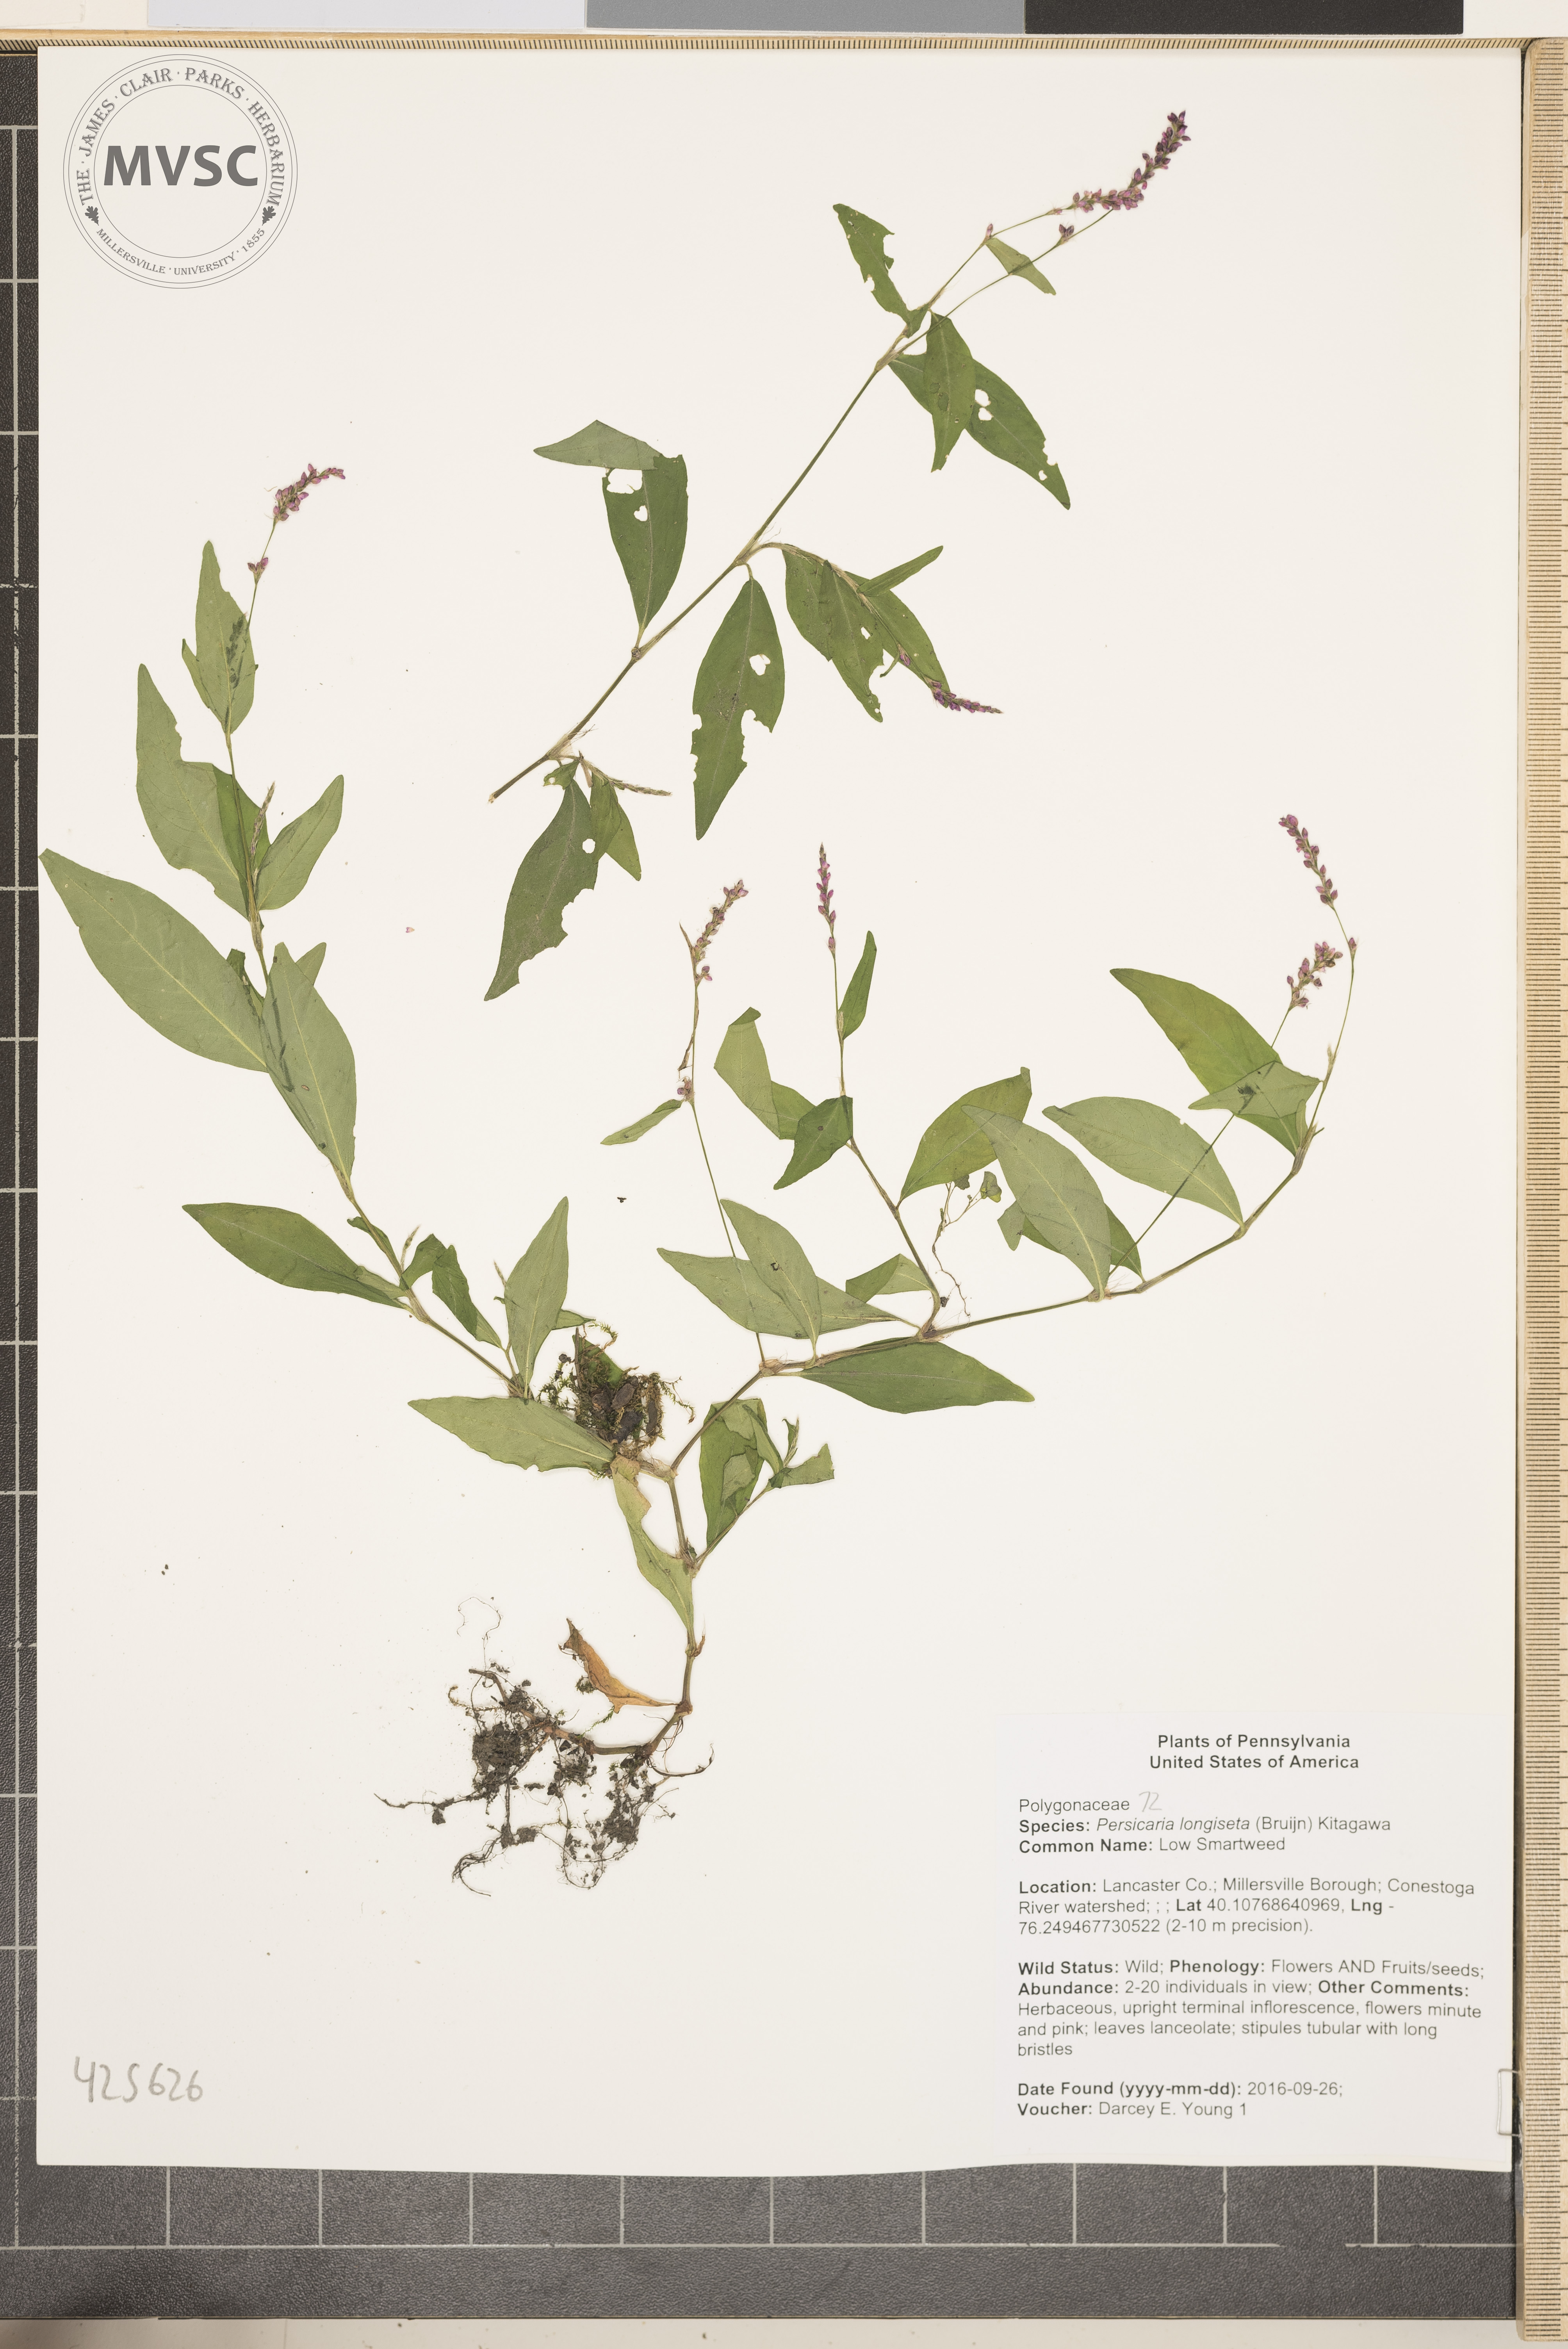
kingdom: Plantae
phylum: Tracheophyta
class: Magnoliopsida
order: Caryophyllales
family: Polygonaceae
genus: Persicaria
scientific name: Persicaria longiseta
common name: Low Smartweed
